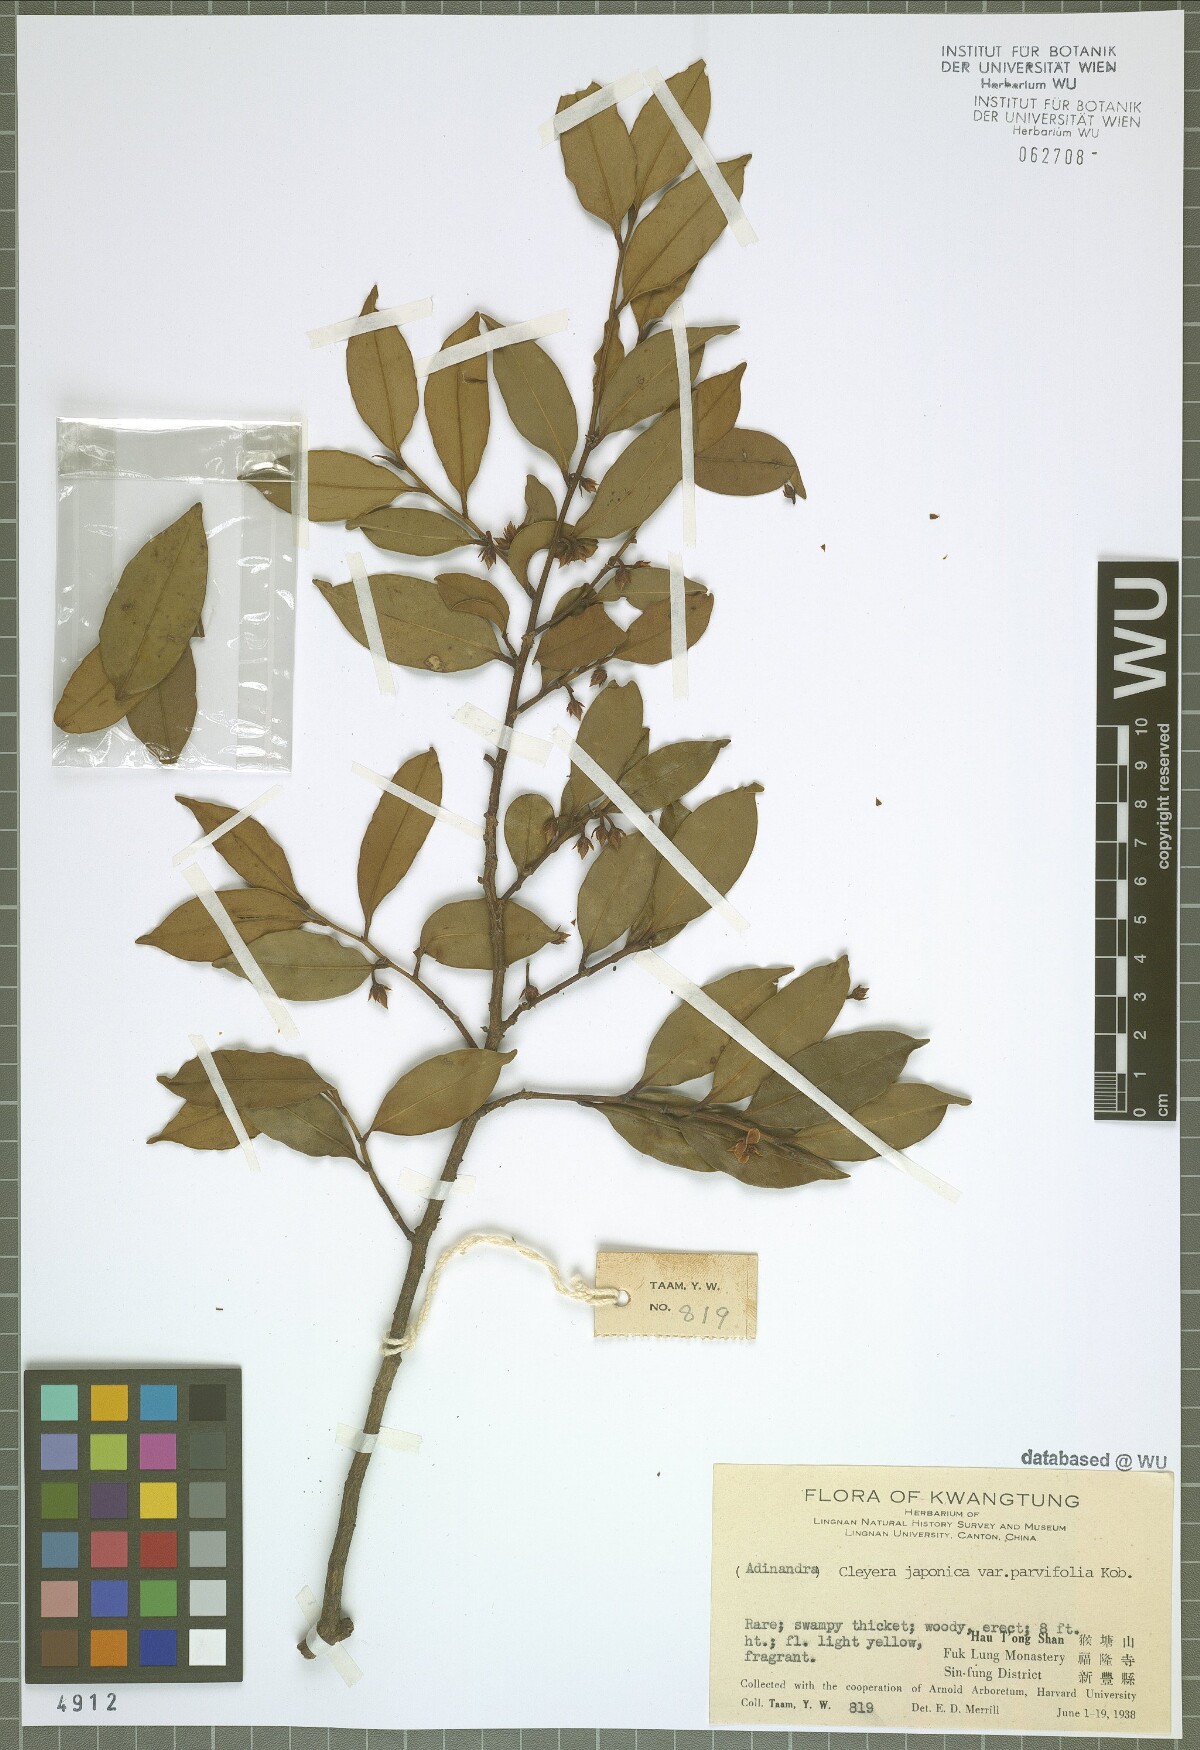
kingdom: Plantae
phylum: Tracheophyta
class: Magnoliopsida
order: Ericales
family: Pentaphylacaceae
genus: Cleyera
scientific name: Cleyera parvifolia
